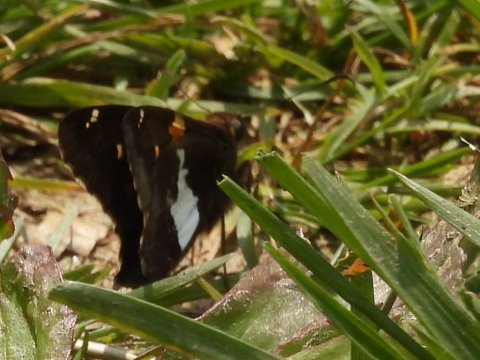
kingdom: Animalia
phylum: Arthropoda
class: Insecta
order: Lepidoptera
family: Hesperiidae
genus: Epargyreus
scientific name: Epargyreus clarus
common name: Silver-spotted Skipper
